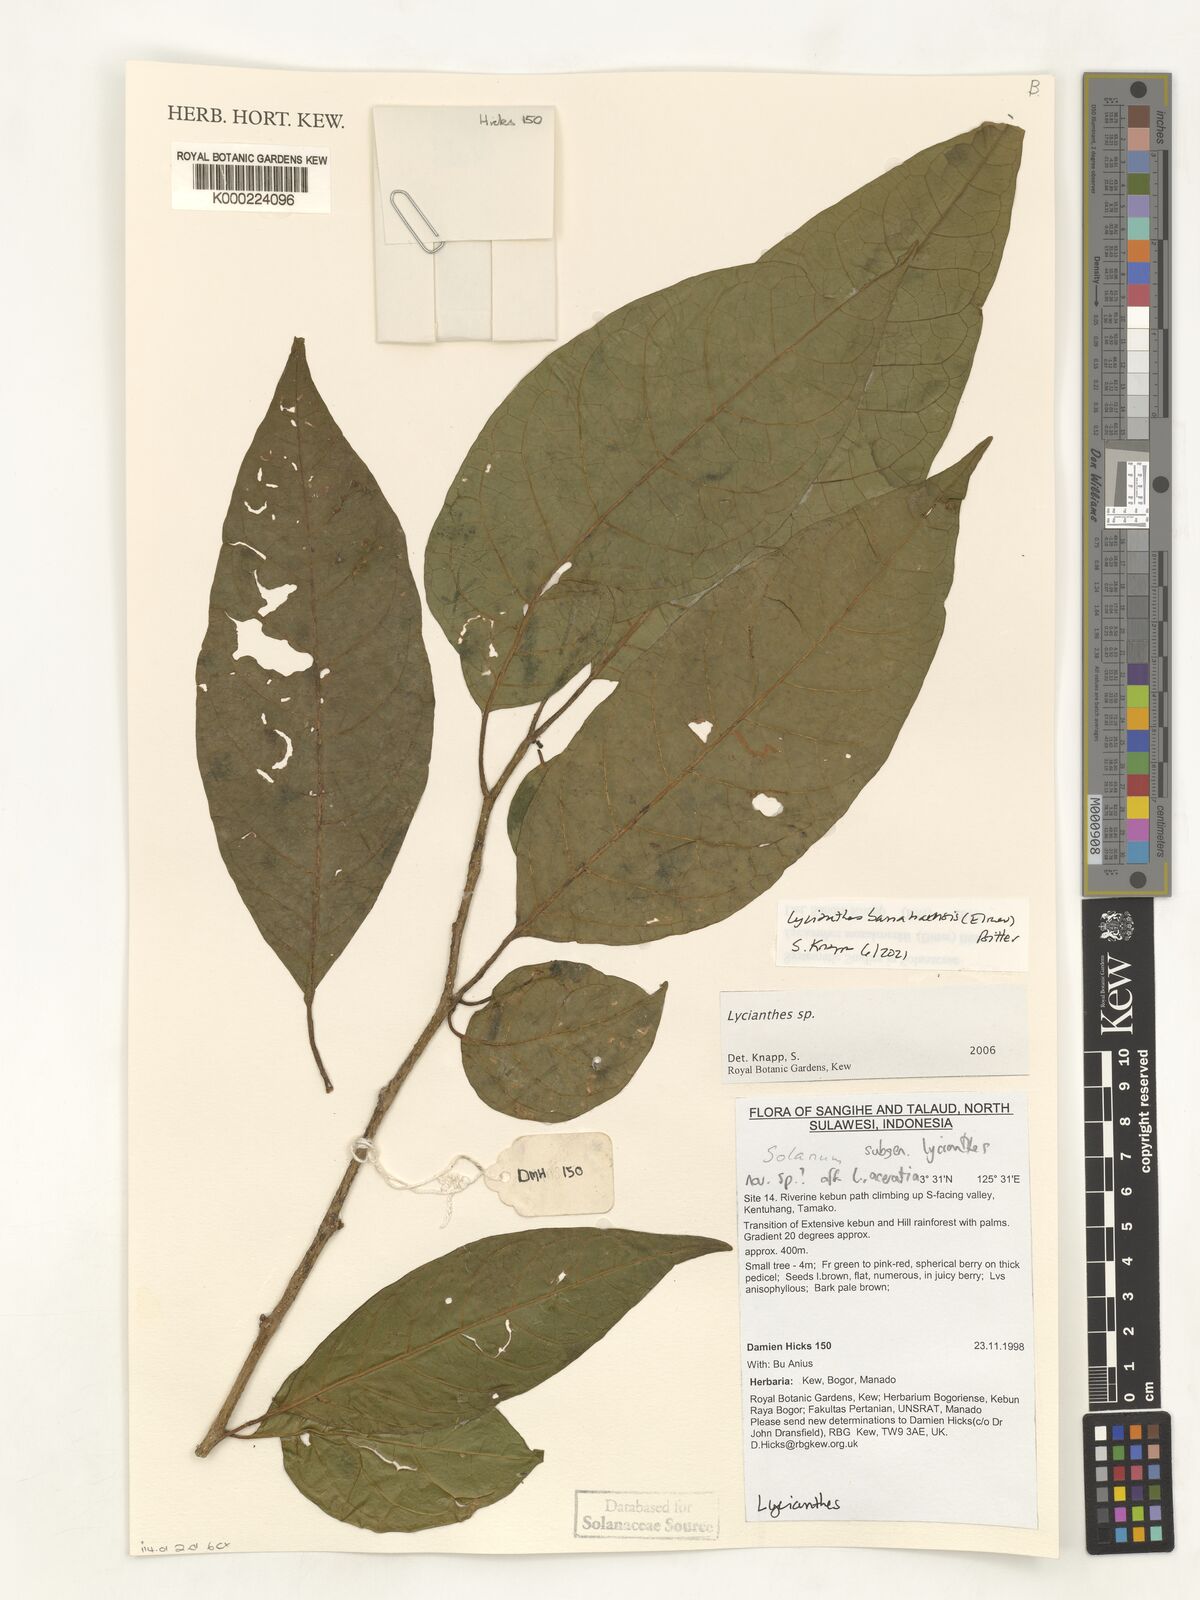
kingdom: Plantae
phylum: Tracheophyta
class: Magnoliopsida
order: Solanales
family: Solanaceae
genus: Lycianthes
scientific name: Lycianthes
